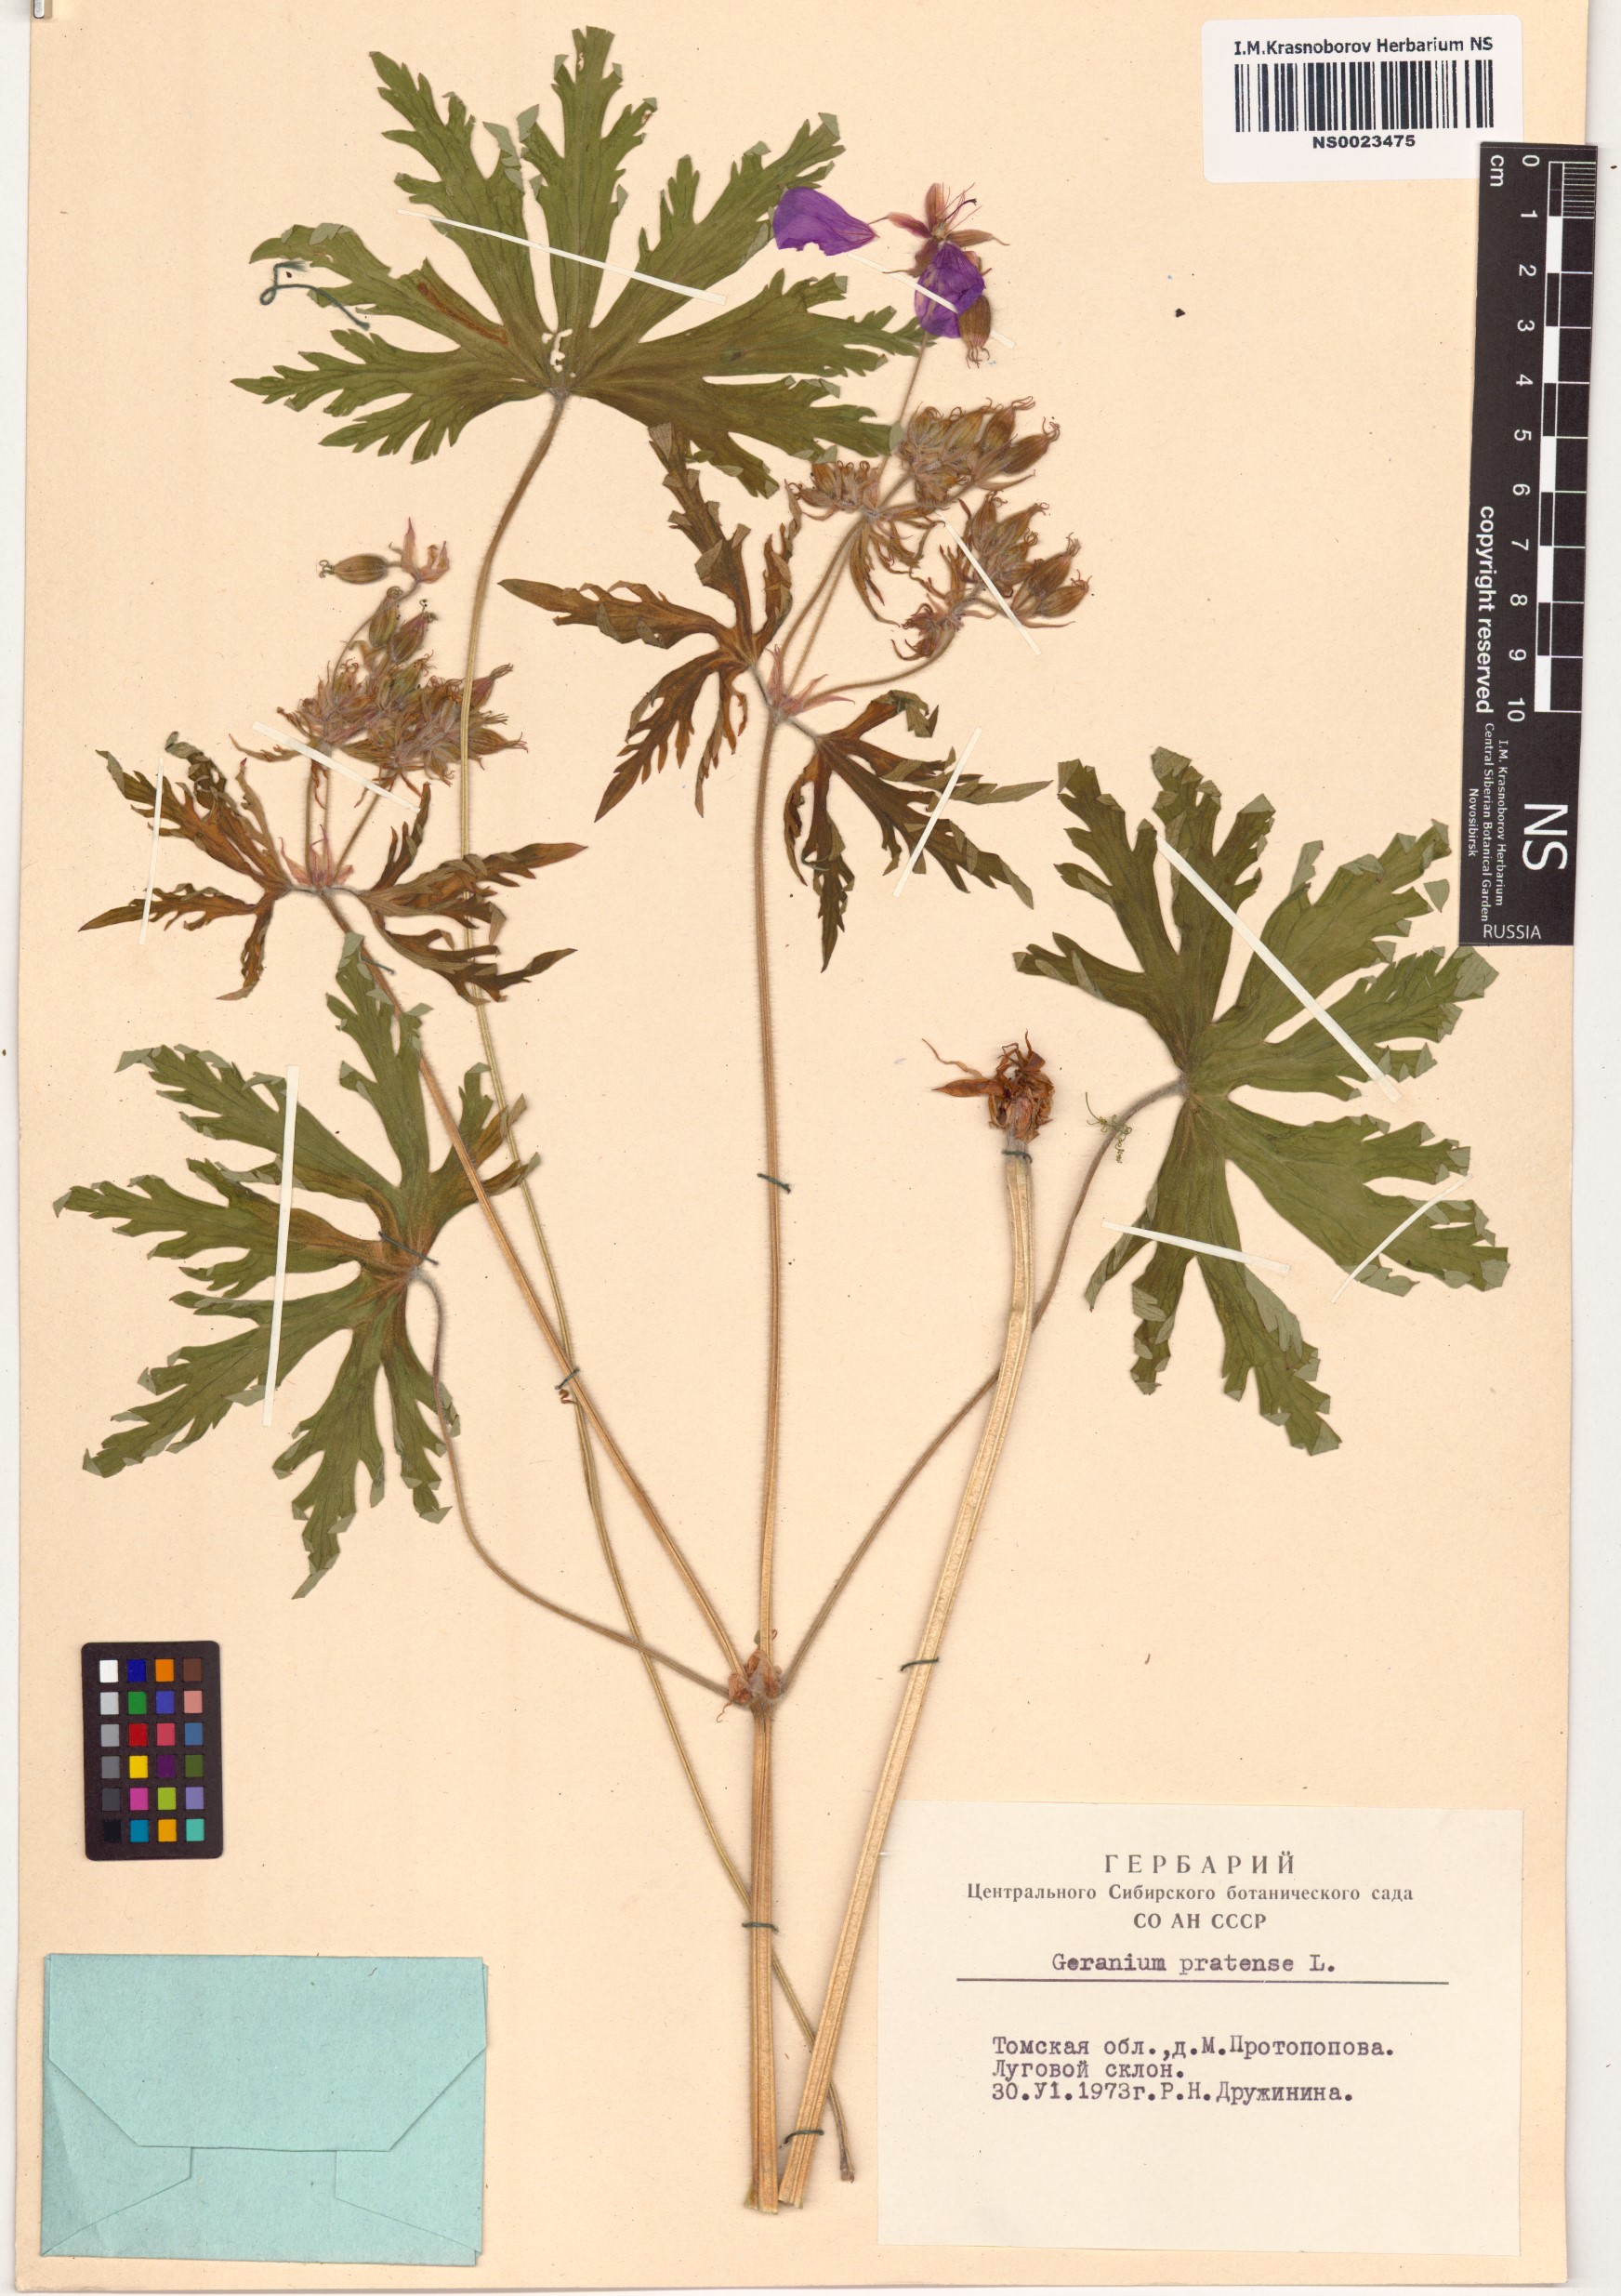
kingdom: Plantae
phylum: Tracheophyta
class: Magnoliopsida
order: Geraniales
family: Geraniaceae
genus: Geranium
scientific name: Geranium pratense
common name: Meadow crane's-bill
